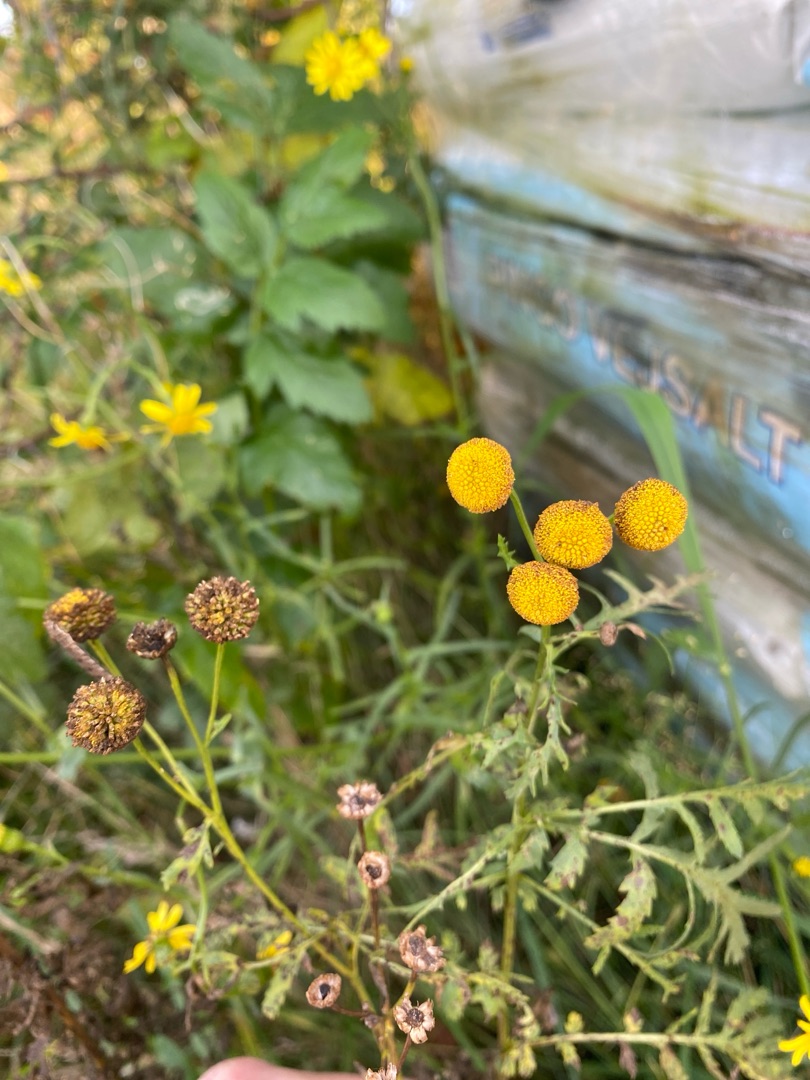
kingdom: Plantae
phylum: Tracheophyta
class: Magnoliopsida
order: Asterales
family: Asteraceae
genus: Tanacetum
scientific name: Tanacetum vulgare
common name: Rejnfan
